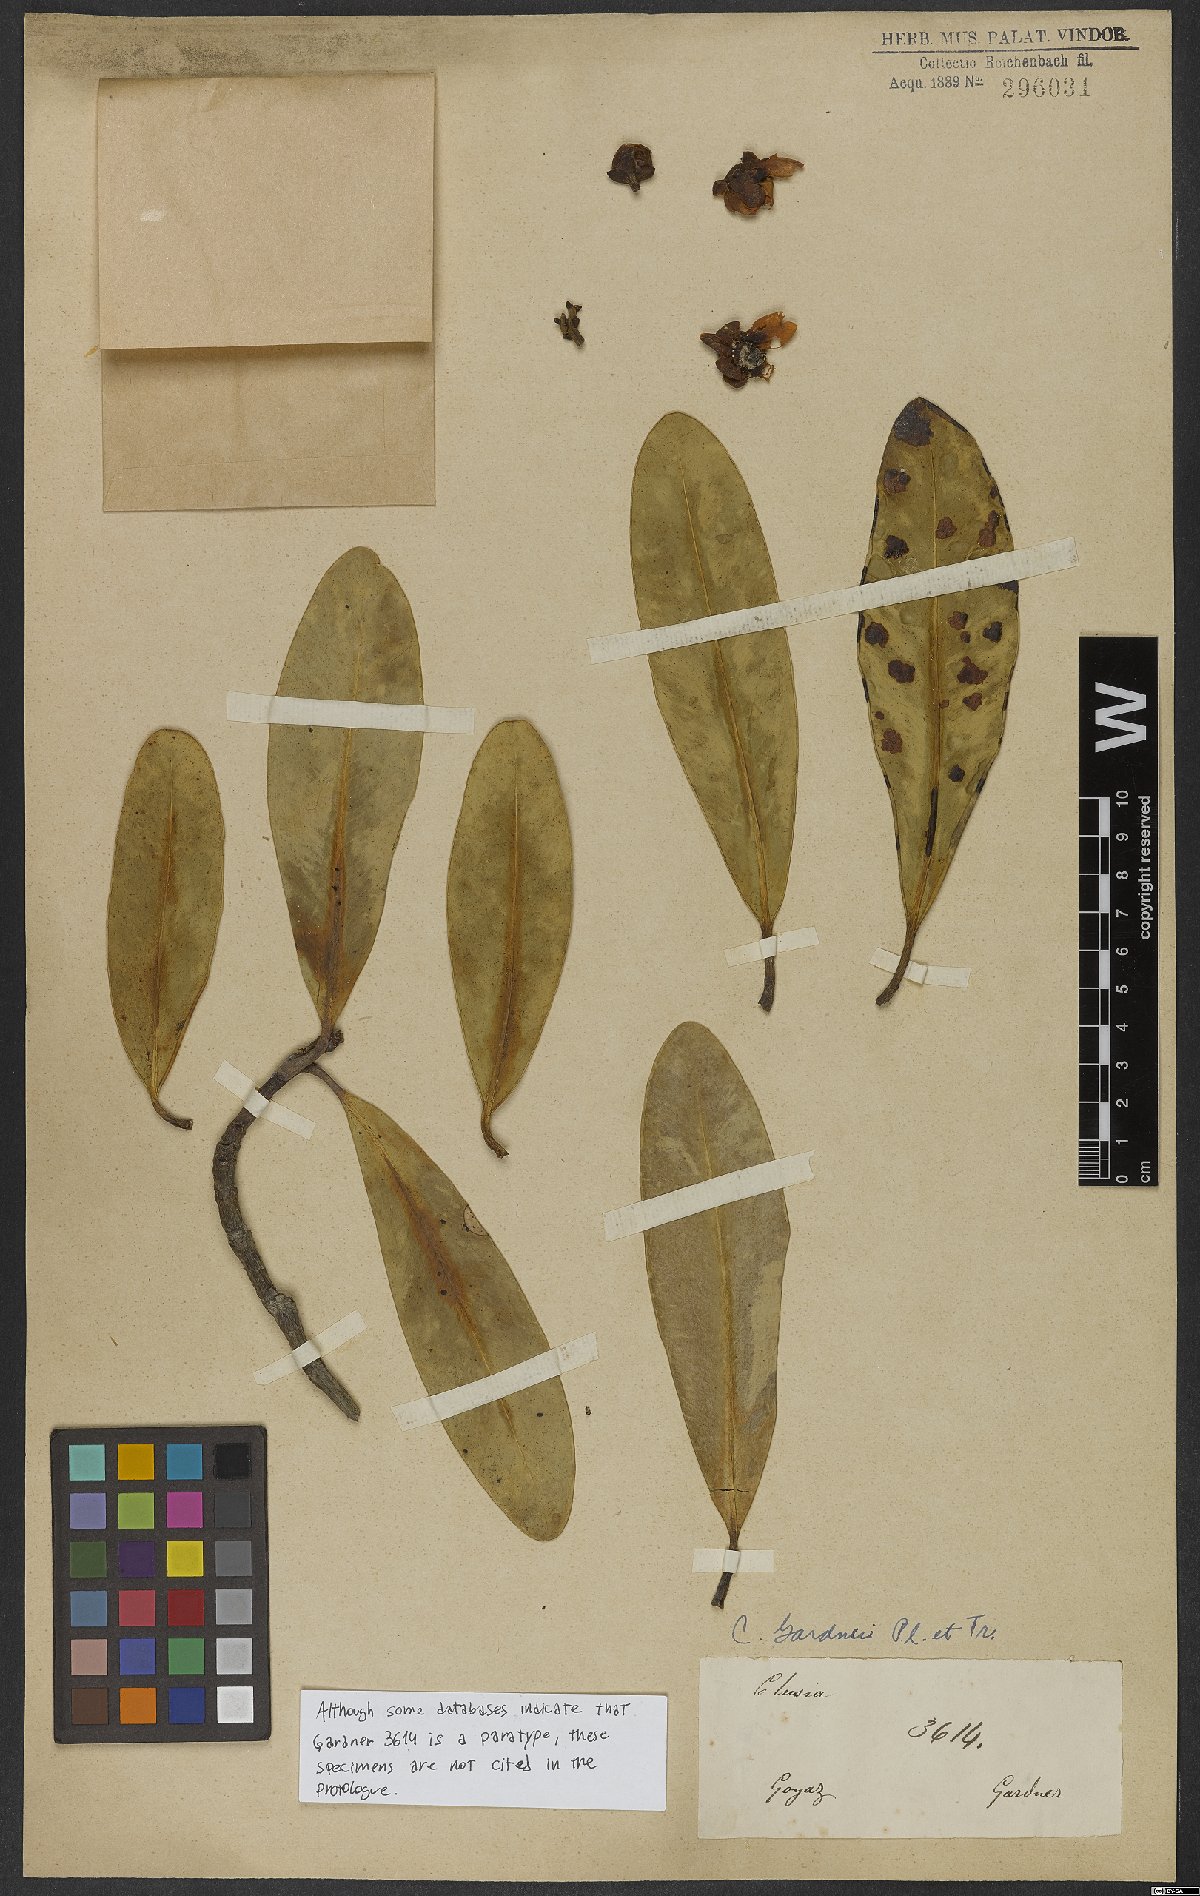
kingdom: Plantae
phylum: Tracheophyta
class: Magnoliopsida
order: Malpighiales
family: Clusiaceae
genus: Clusia
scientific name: Clusia gardneri
